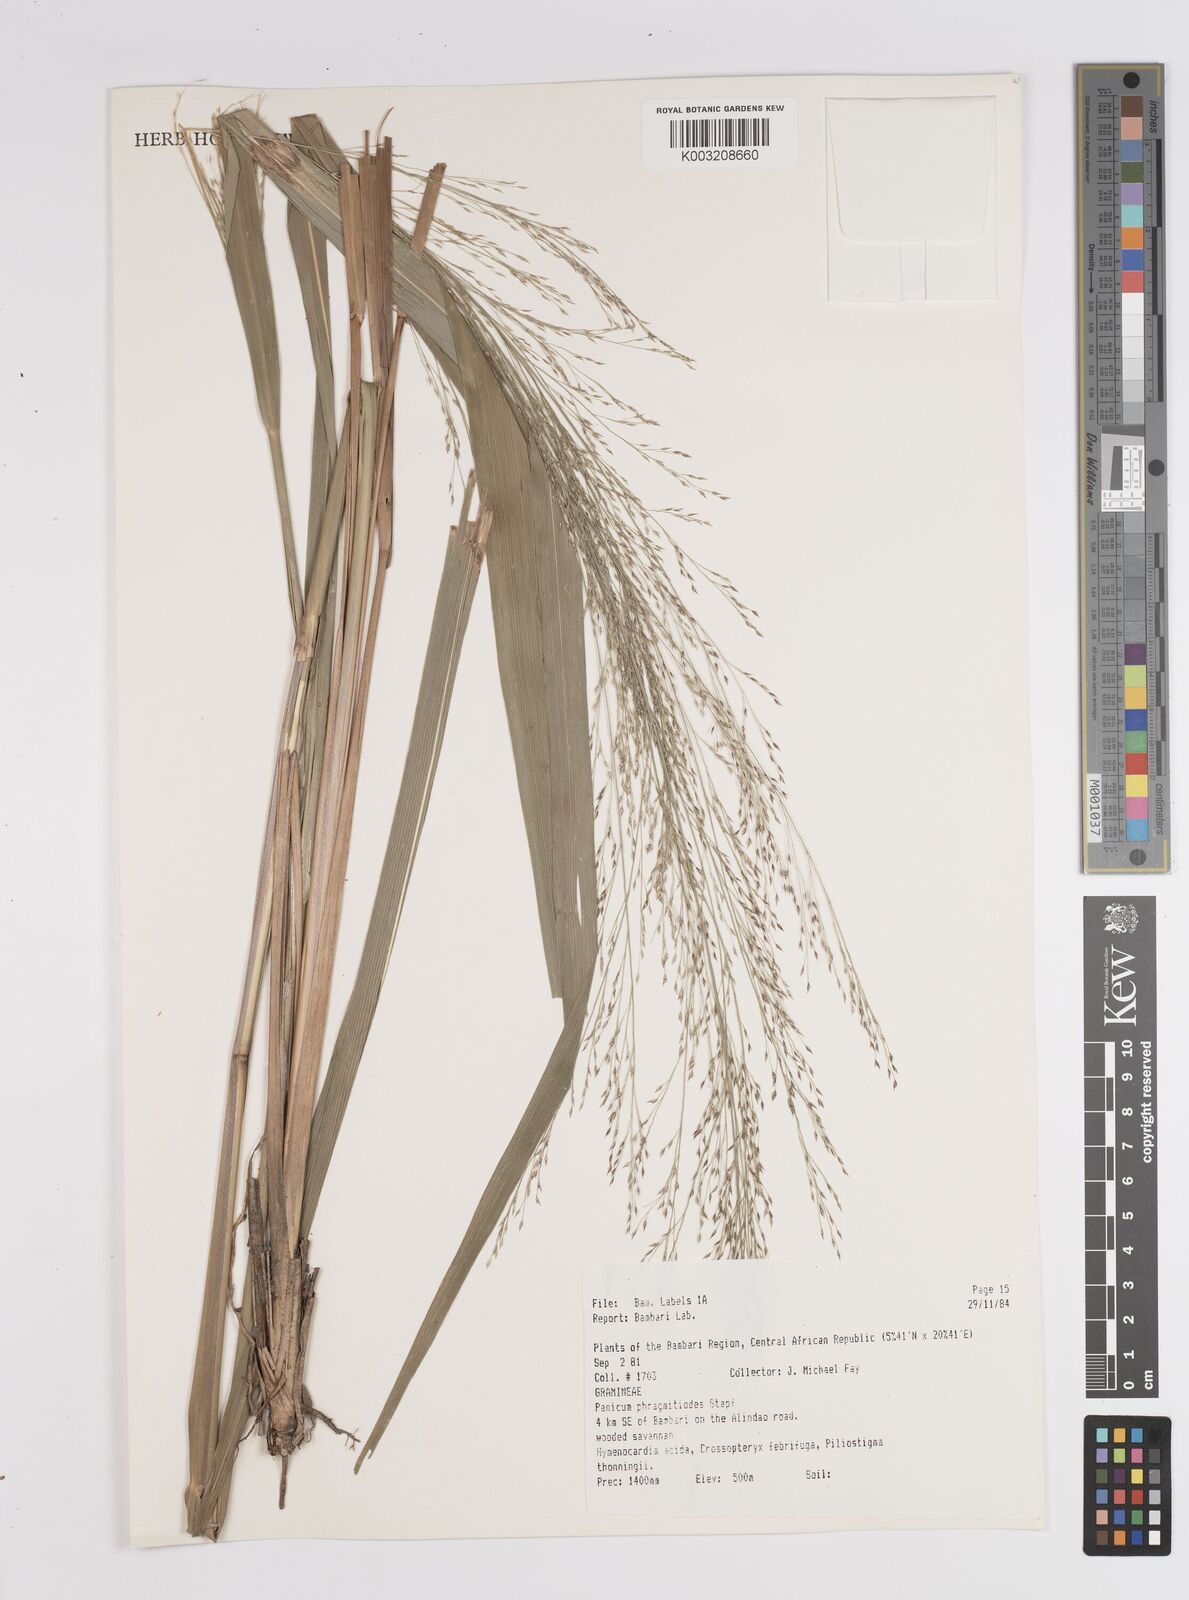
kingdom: Plantae
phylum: Tracheophyta
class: Liliopsida
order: Poales
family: Poaceae
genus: Panicum
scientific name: Panicum phragmitoides
